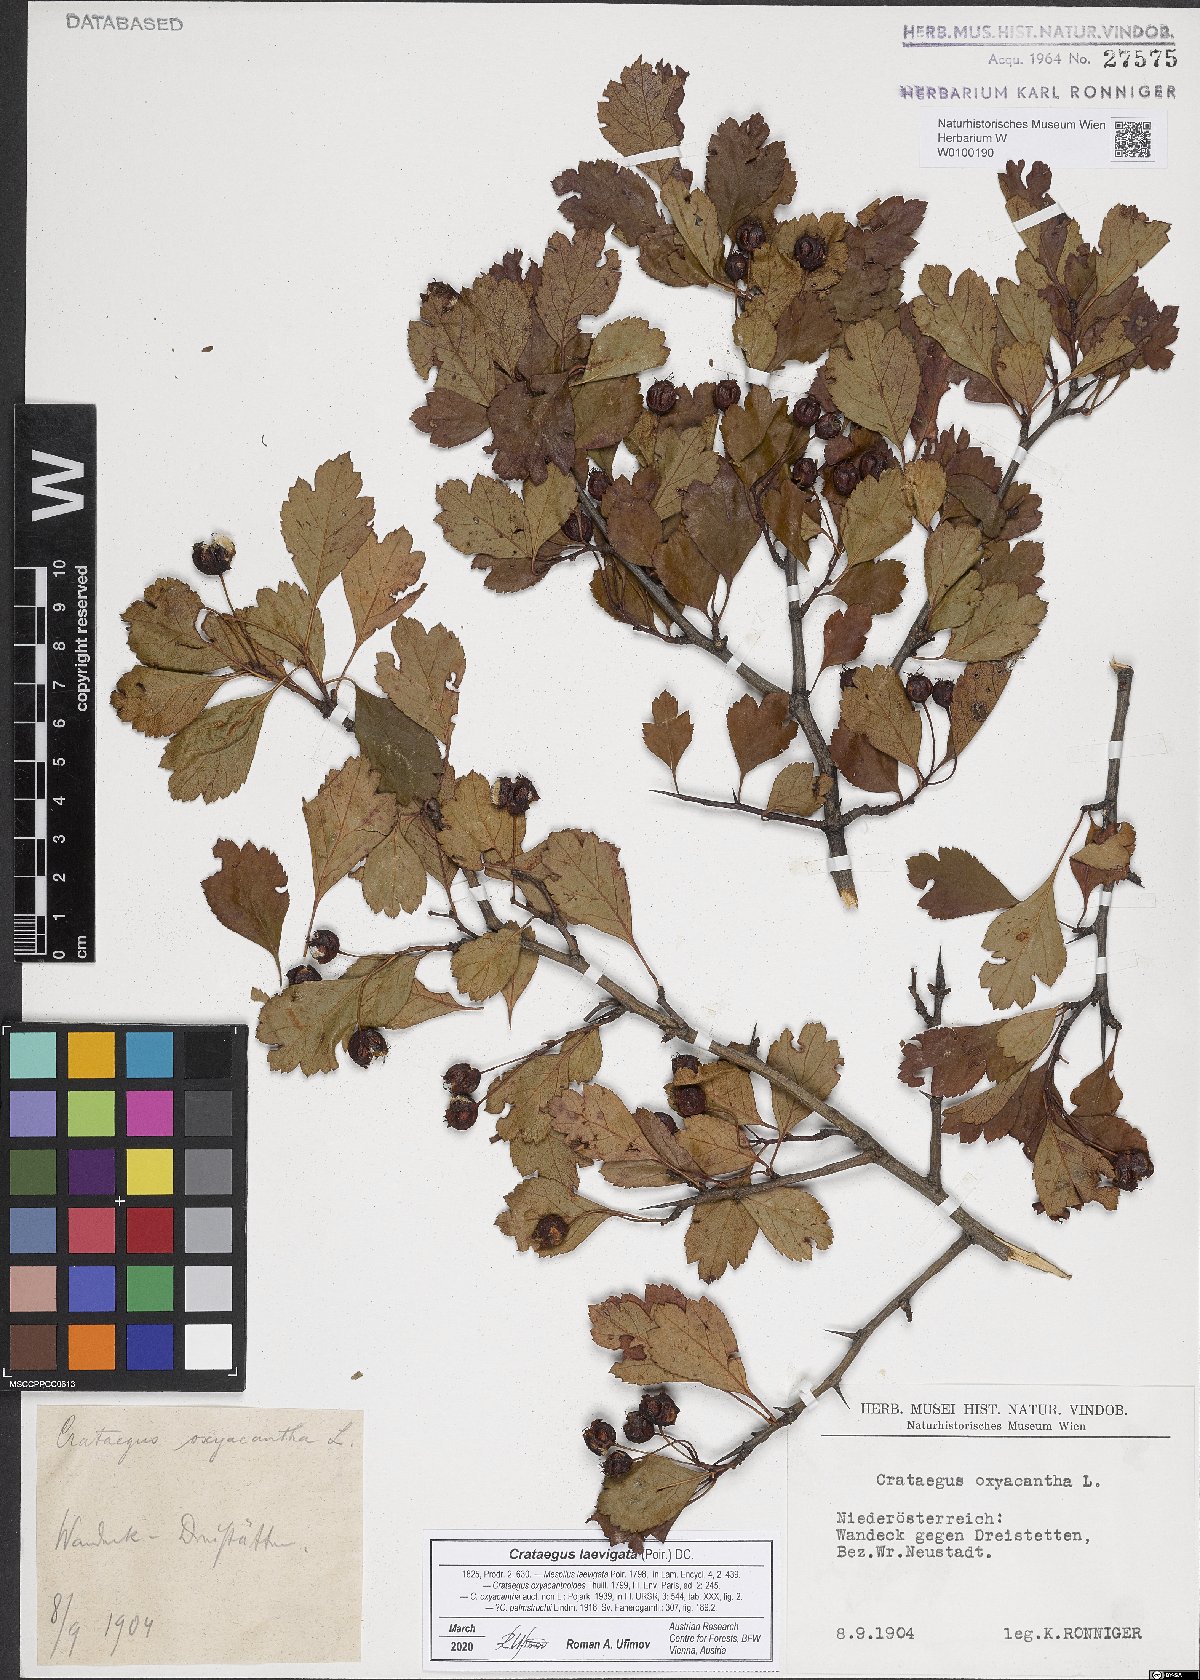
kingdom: Plantae
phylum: Tracheophyta
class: Magnoliopsida
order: Rosales
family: Rosaceae
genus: Crataegus
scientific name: Crataegus laevigata
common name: Midland hawthorn
